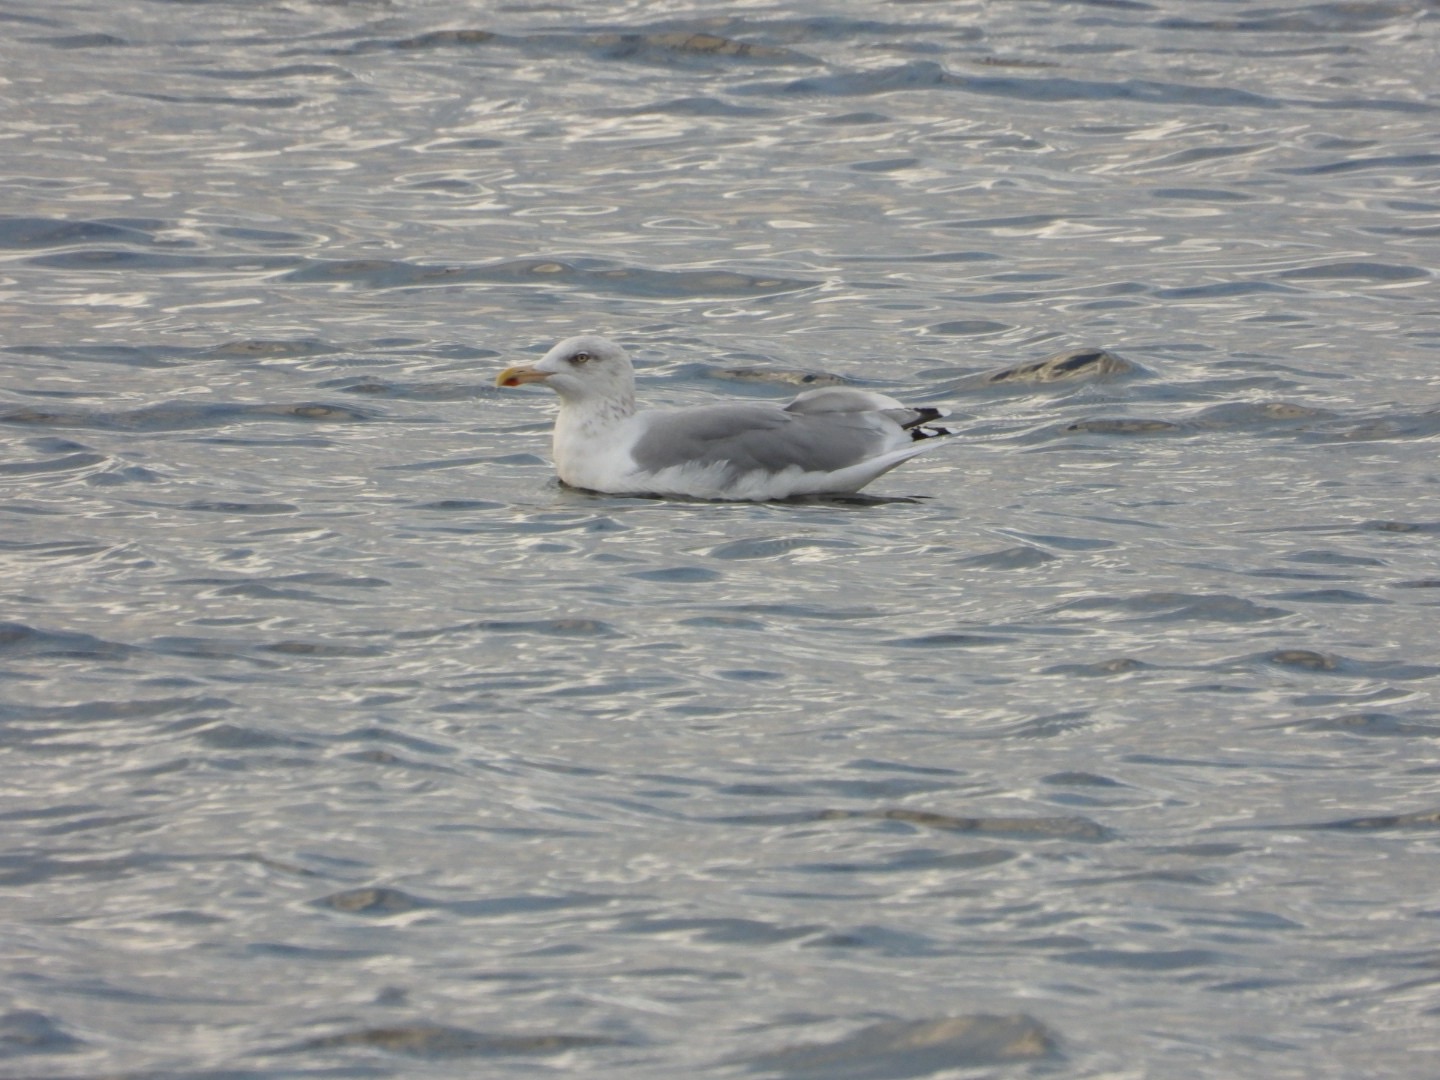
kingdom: Animalia
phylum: Chordata
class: Aves
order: Charadriiformes
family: Laridae
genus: Larus
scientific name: Larus argentatus
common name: Sølvmåge
